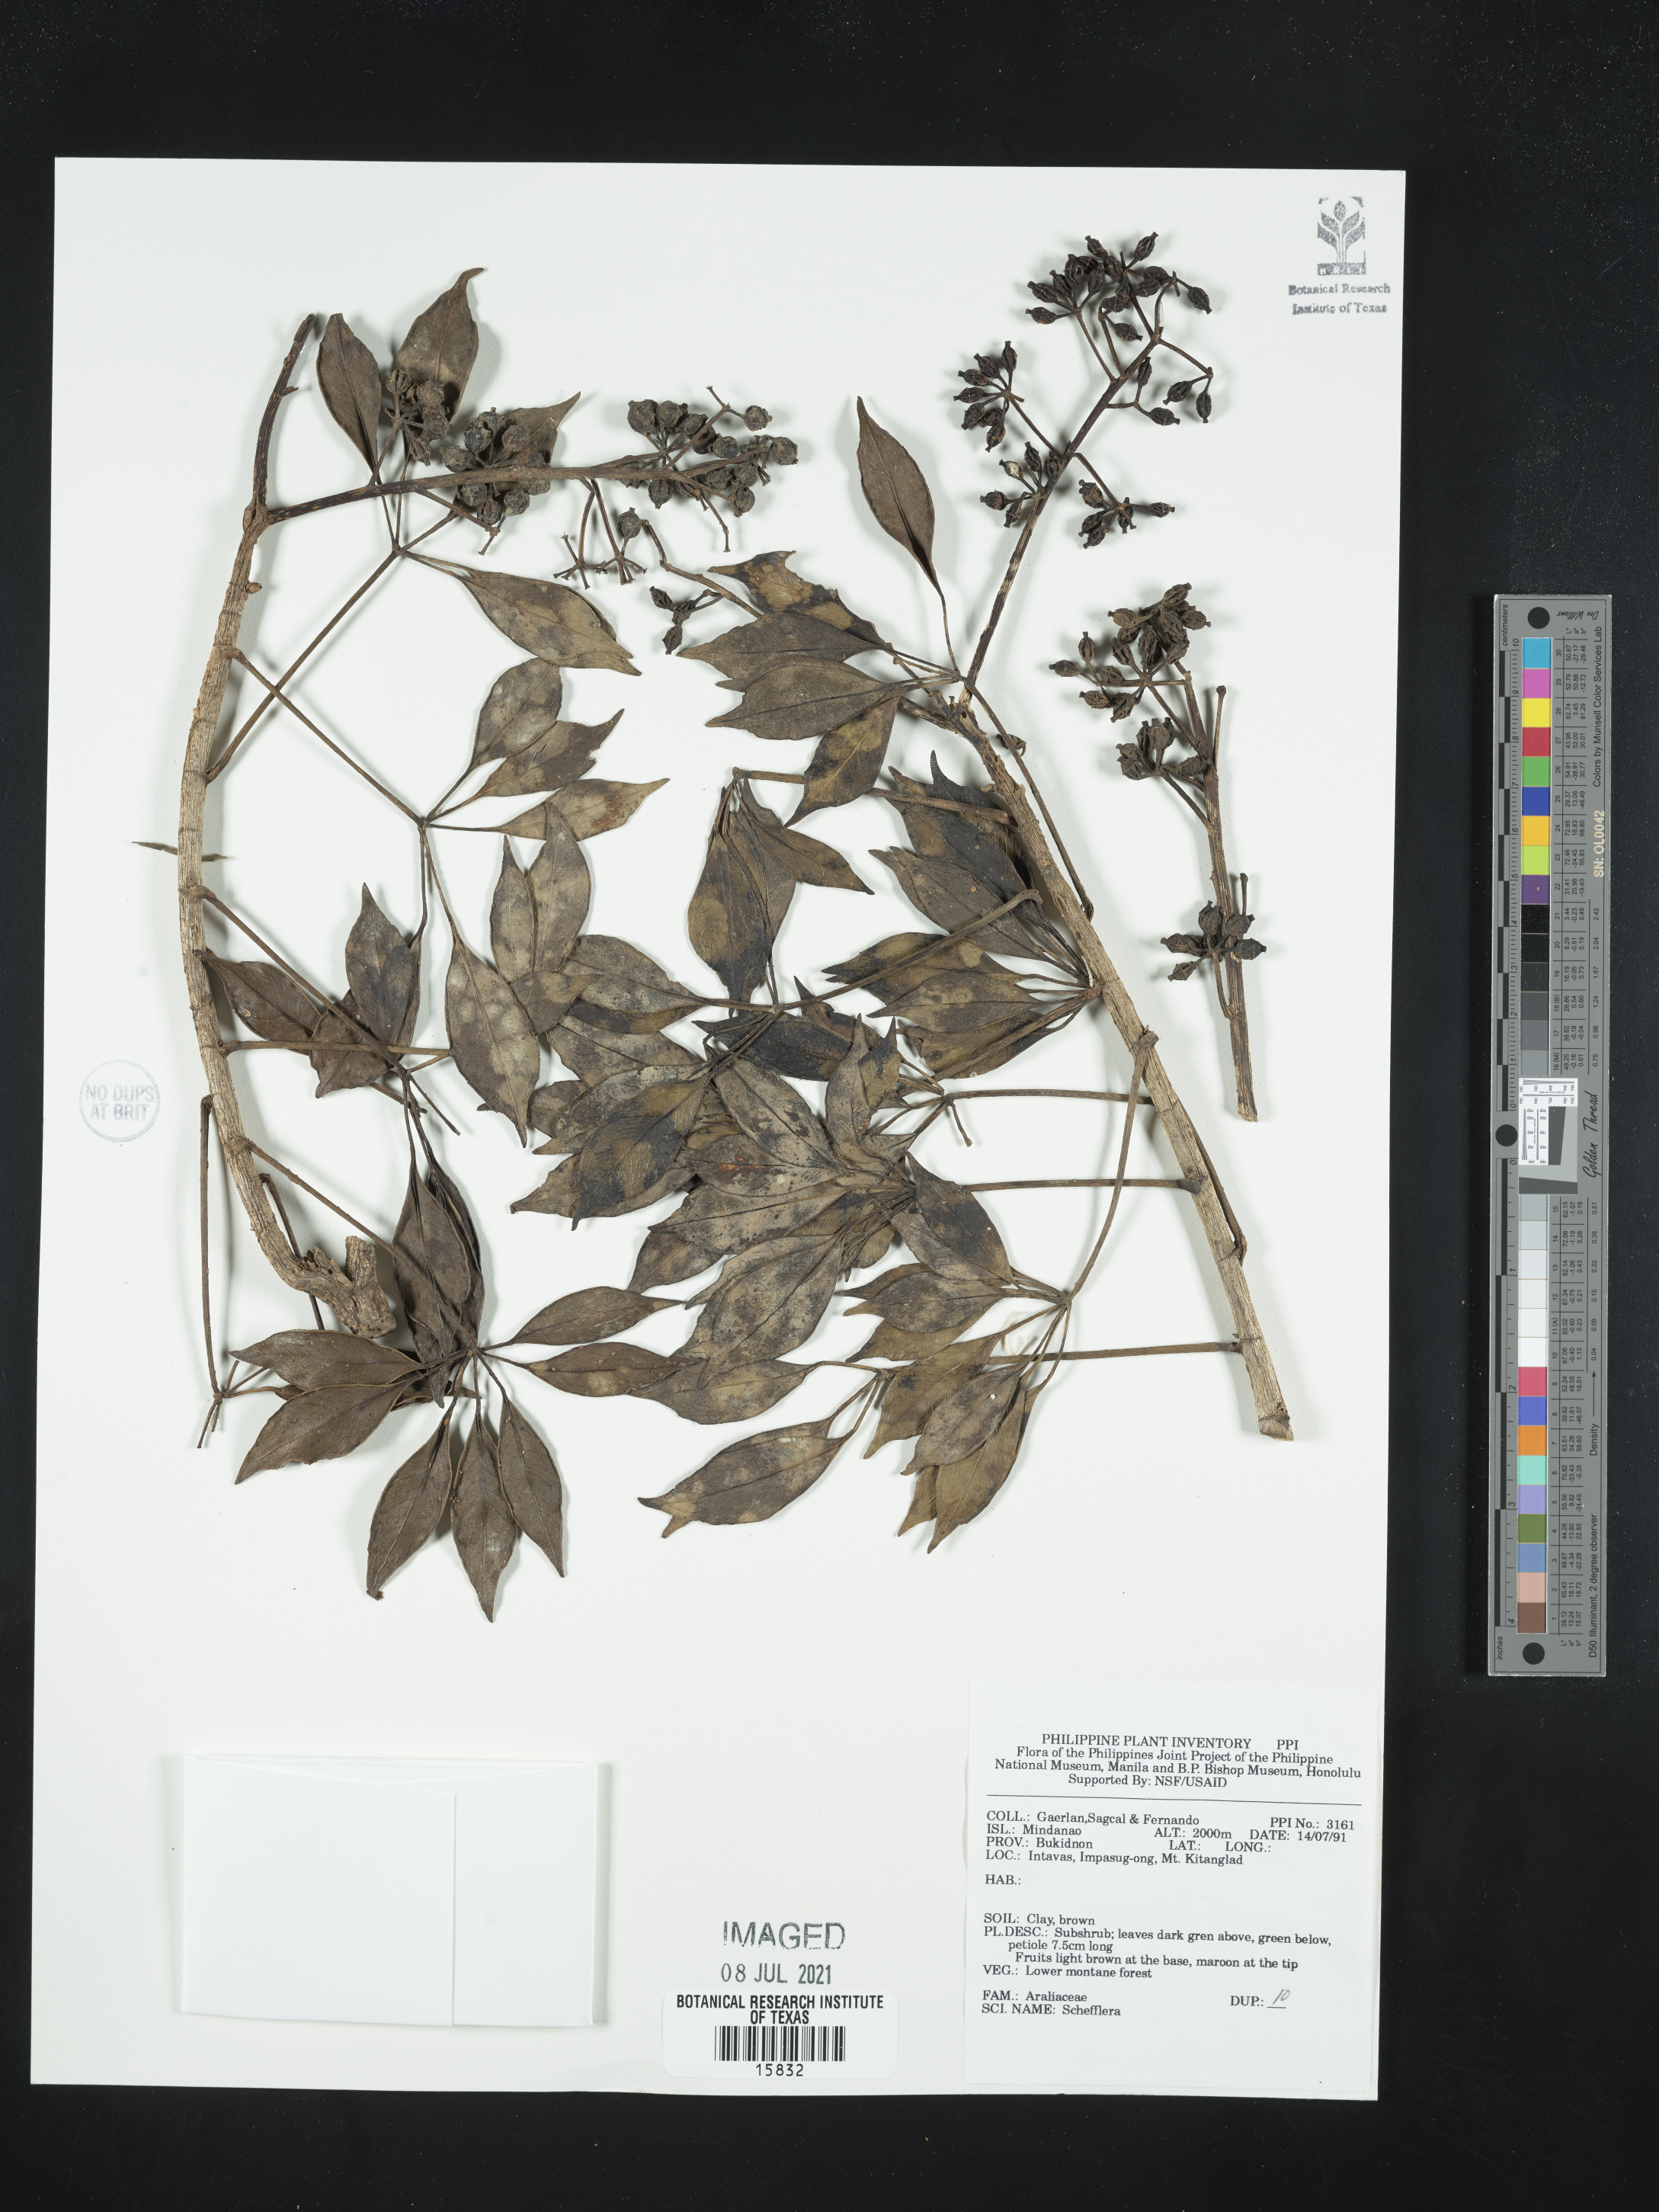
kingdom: Plantae
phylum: Tracheophyta
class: Magnoliopsida
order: Apiales
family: Araliaceae
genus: Schefflera
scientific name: Schefflera
